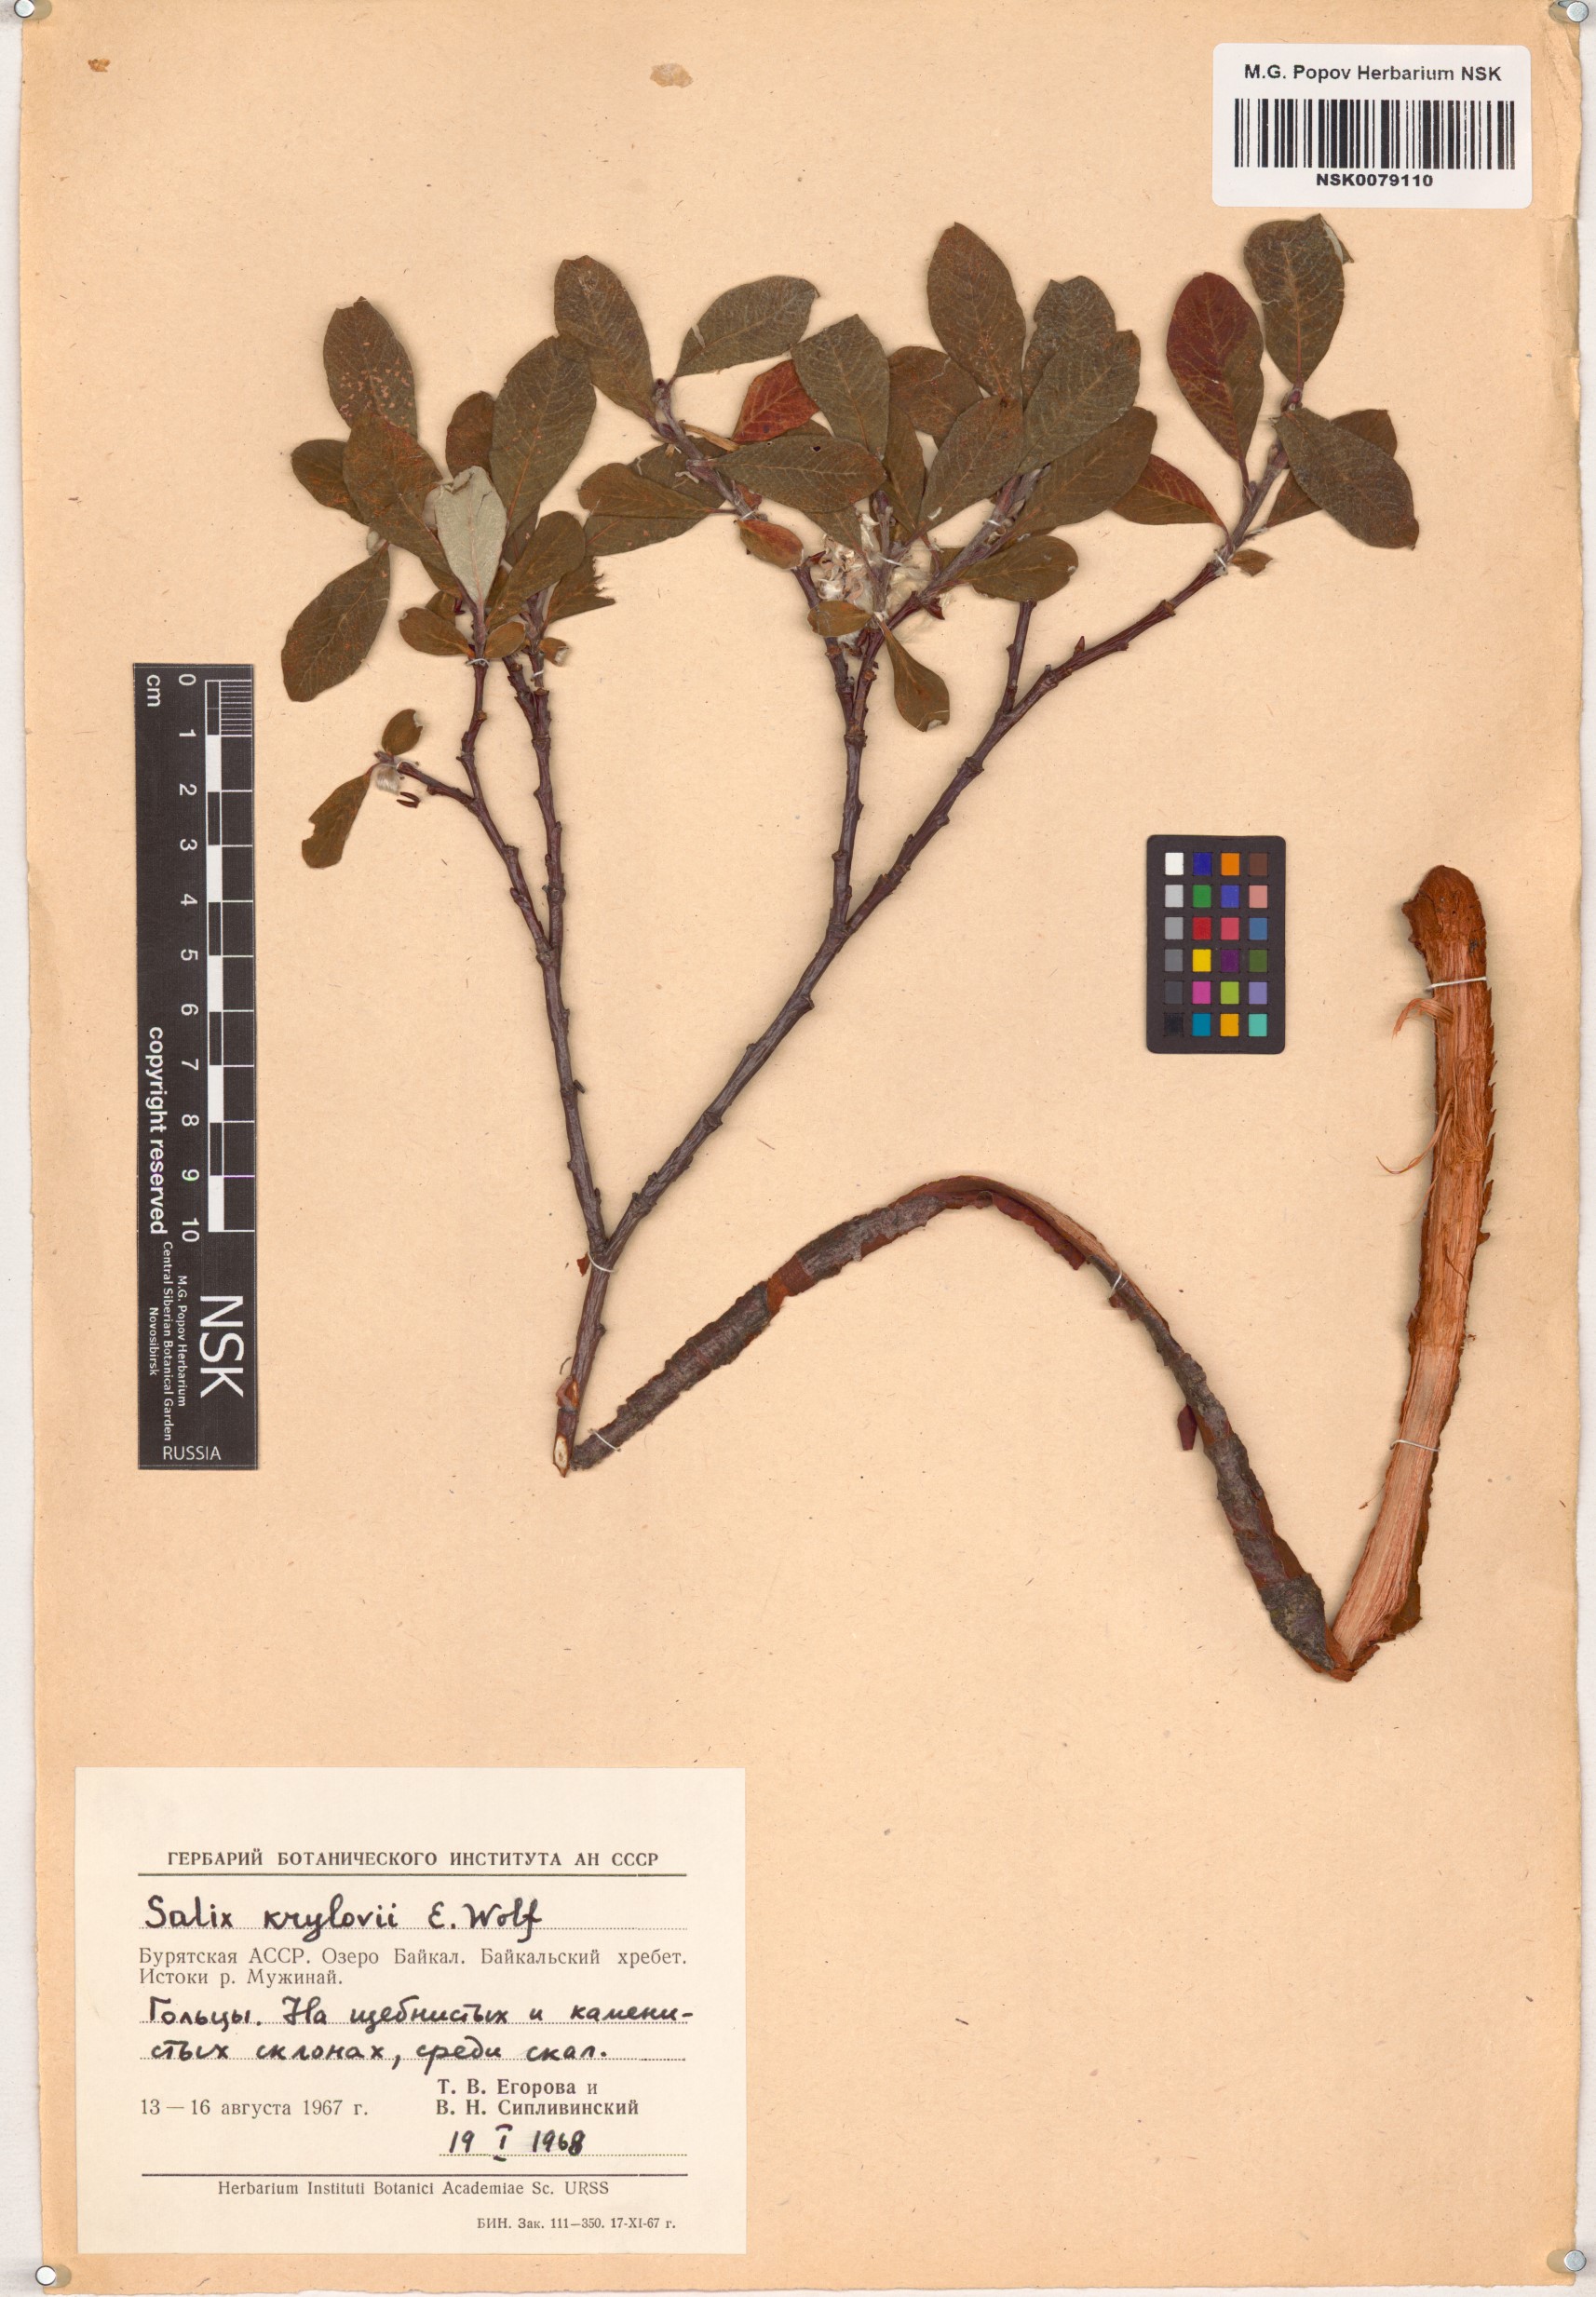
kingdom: Plantae
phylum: Tracheophyta
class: Magnoliopsida
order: Malpighiales
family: Salicaceae
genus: Salix
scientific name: Salix krylovii
